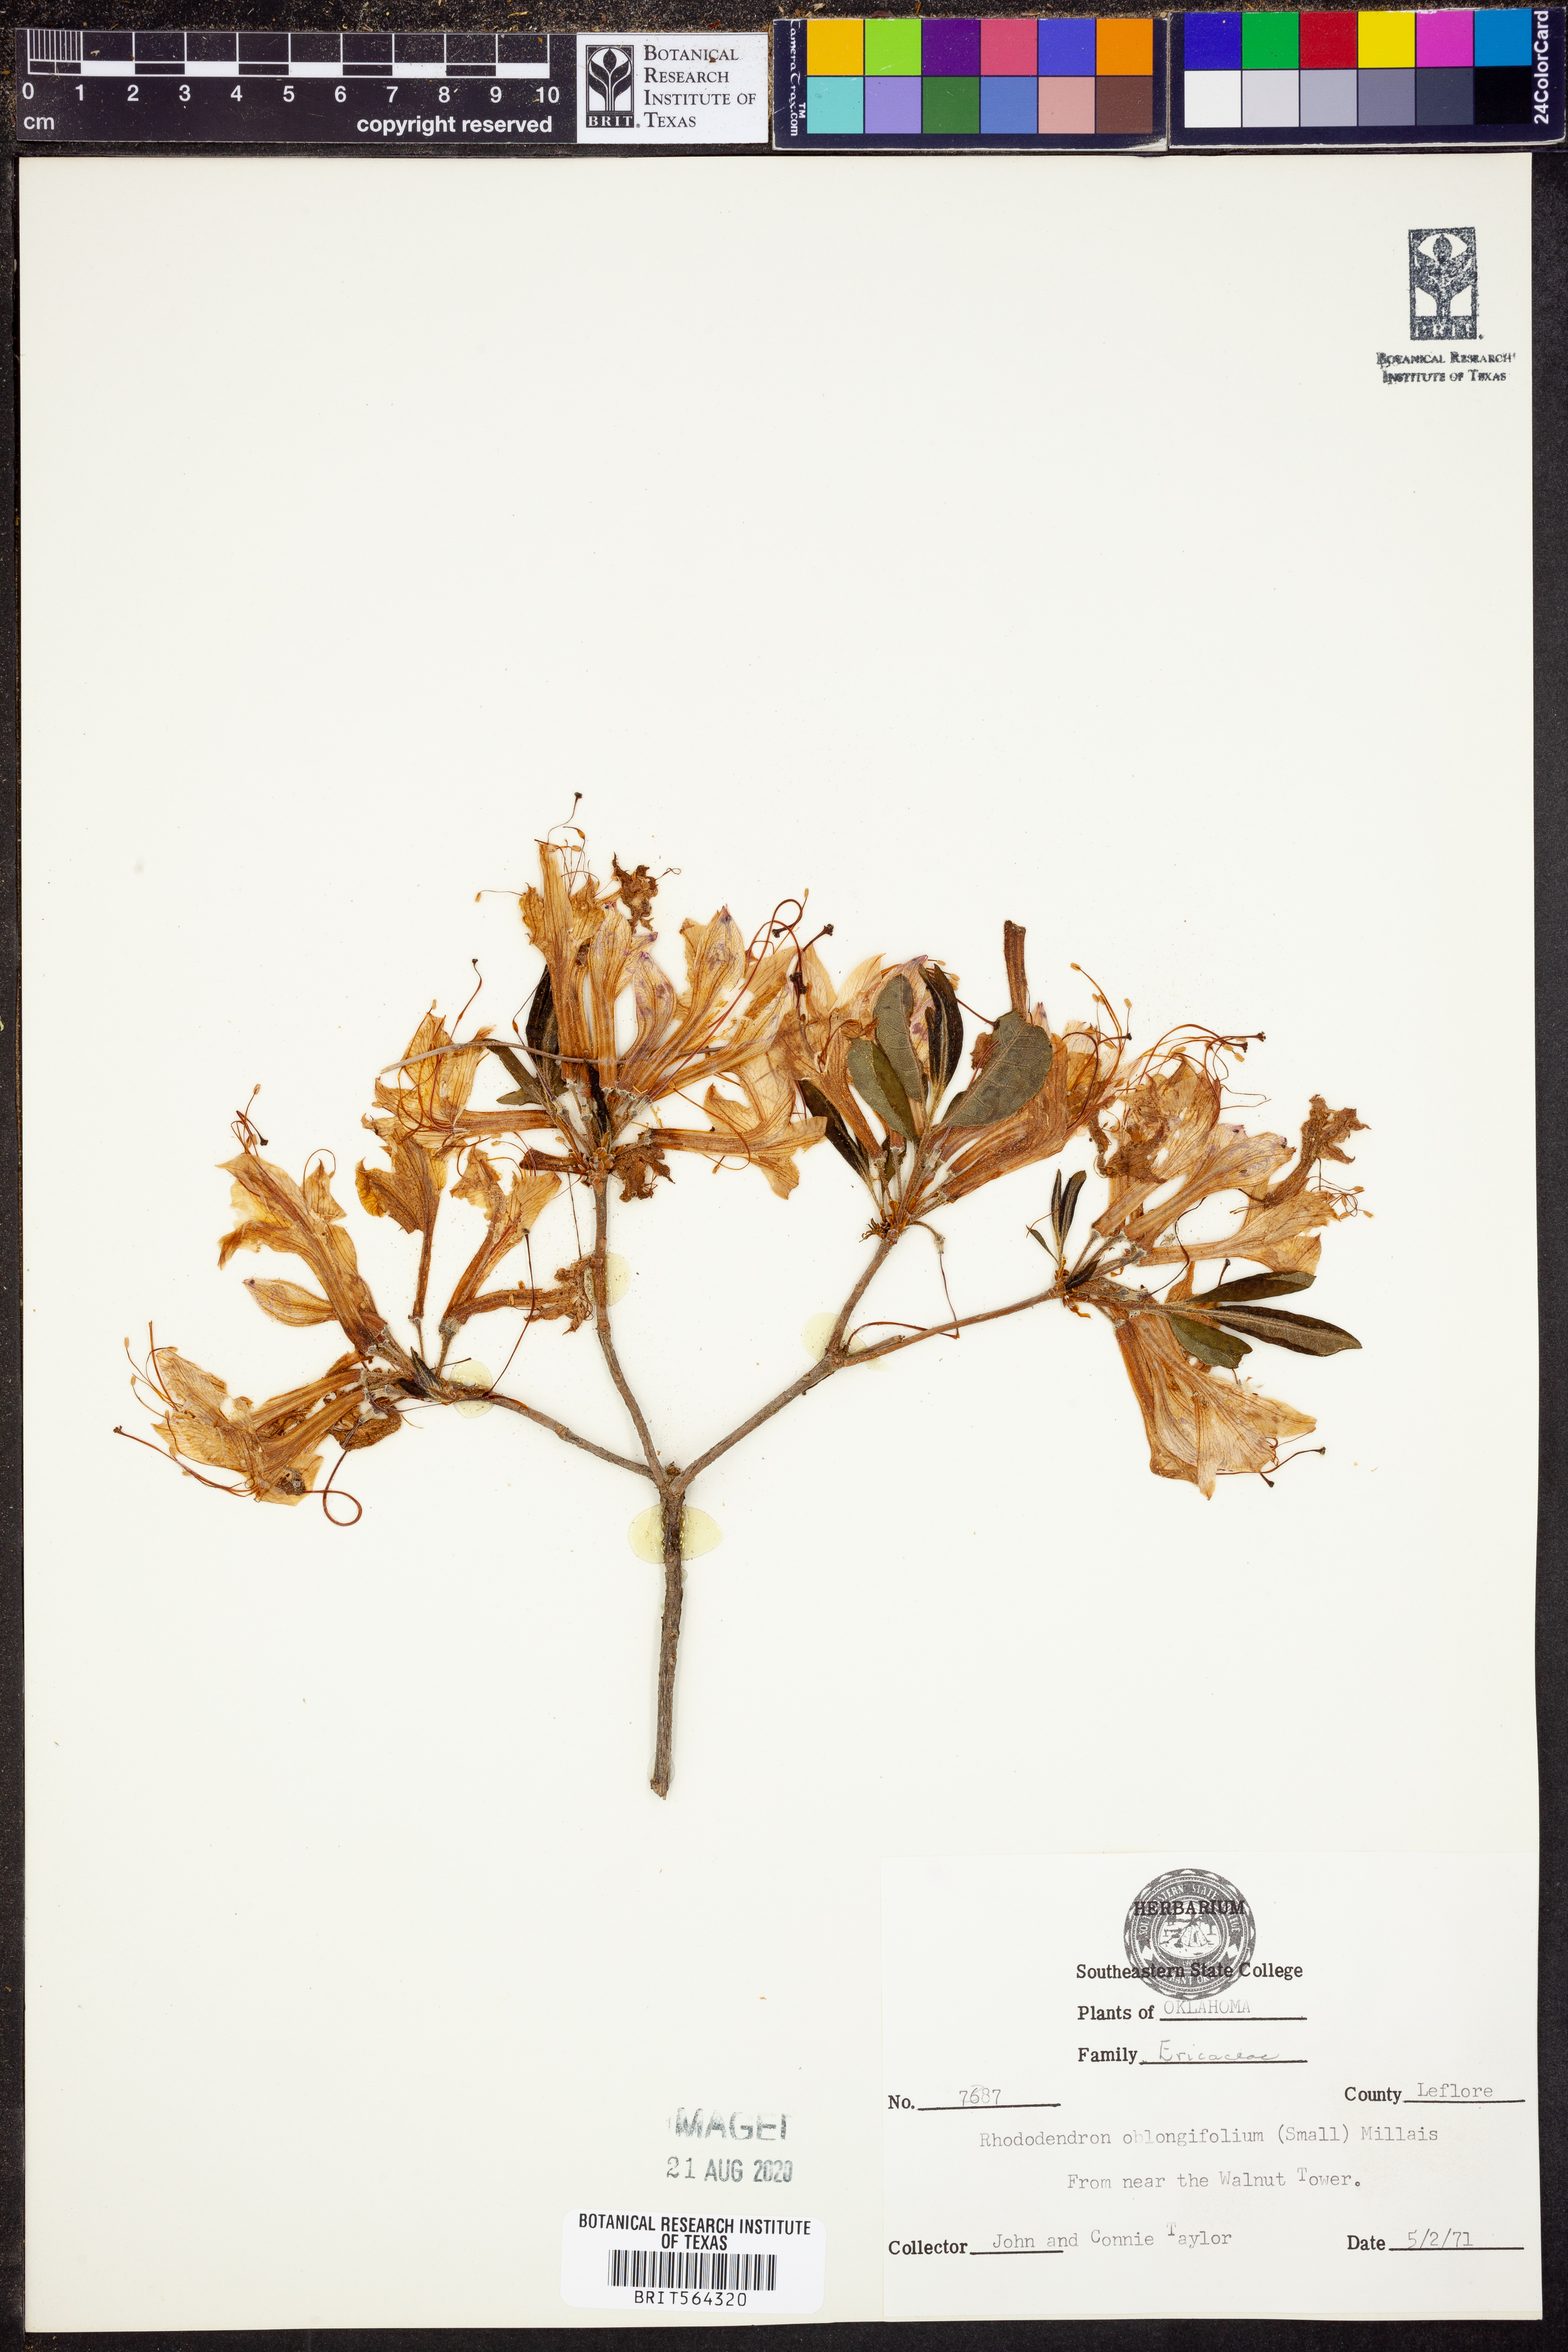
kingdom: Plantae
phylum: Tracheophyta
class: Magnoliopsida
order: Ericales
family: Ericaceae
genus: Rhododendron
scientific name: Rhododendron viscosum
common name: Clammy azalea
